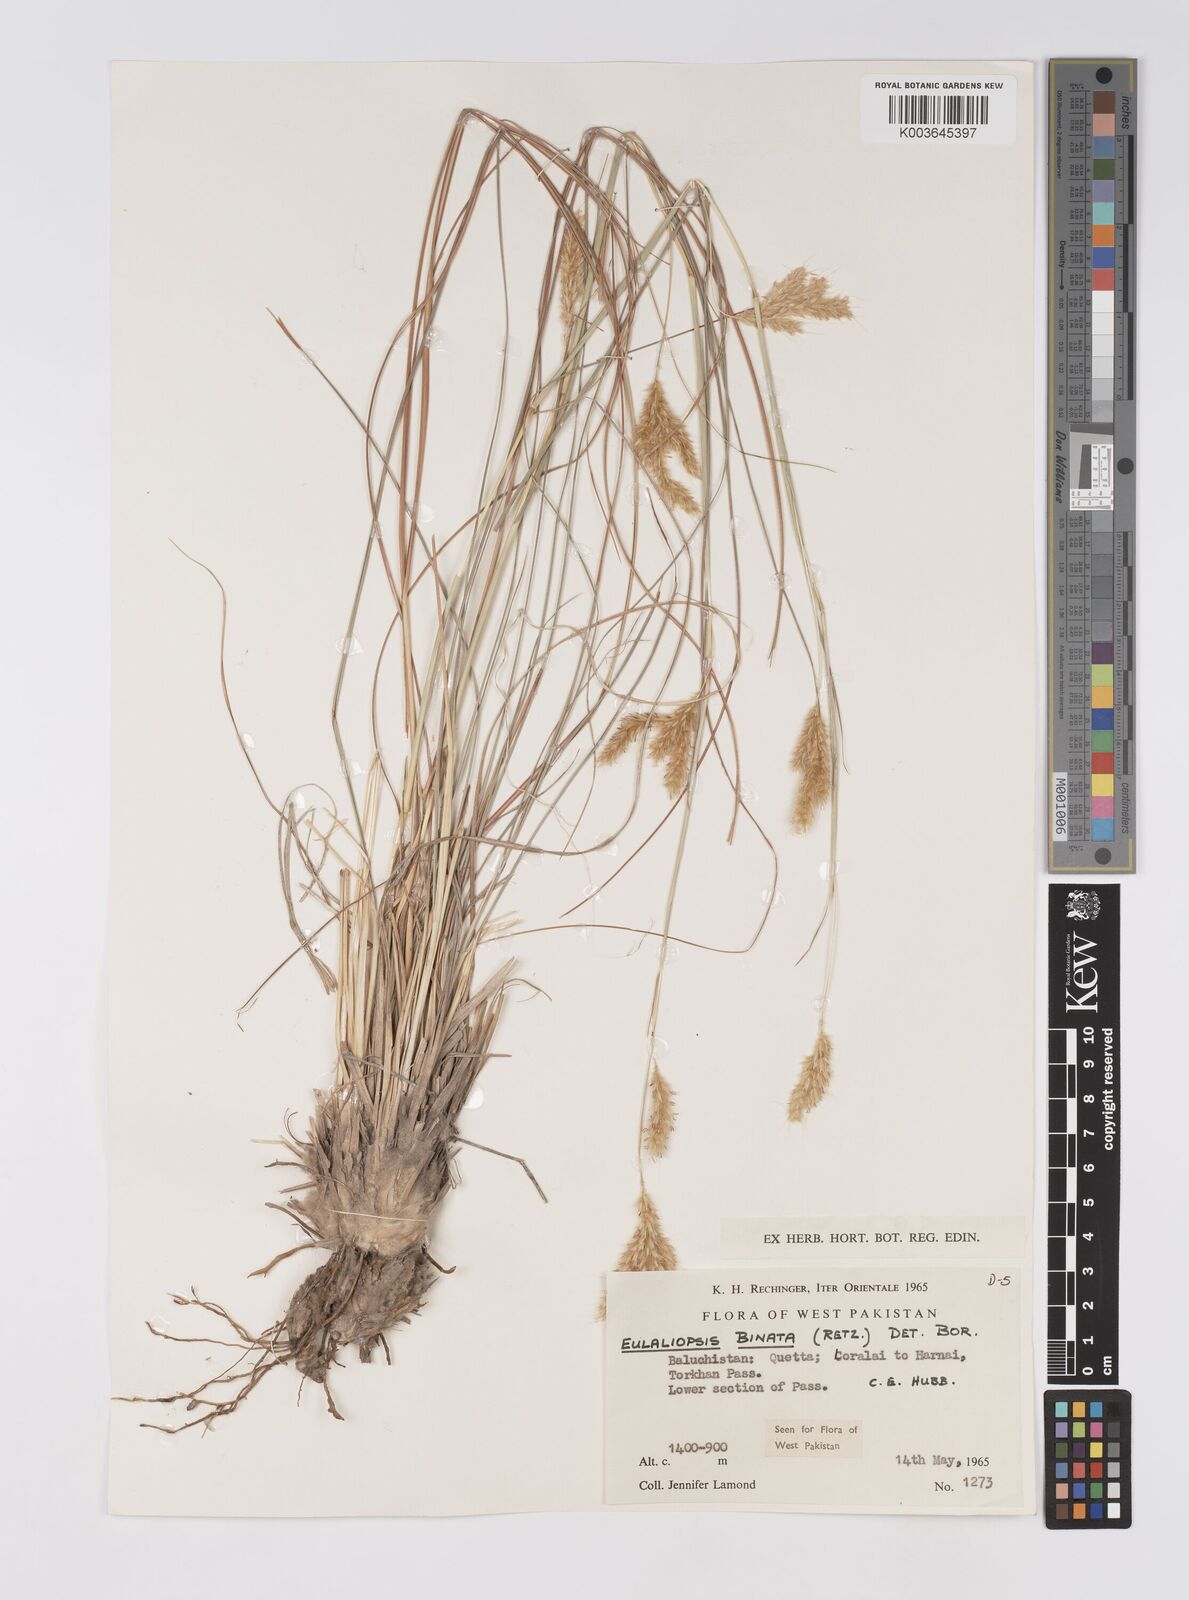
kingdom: Plantae
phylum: Tracheophyta
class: Liliopsida
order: Poales
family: Poaceae
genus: Eulaliopsis
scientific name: Eulaliopsis binata
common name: Baib grass
